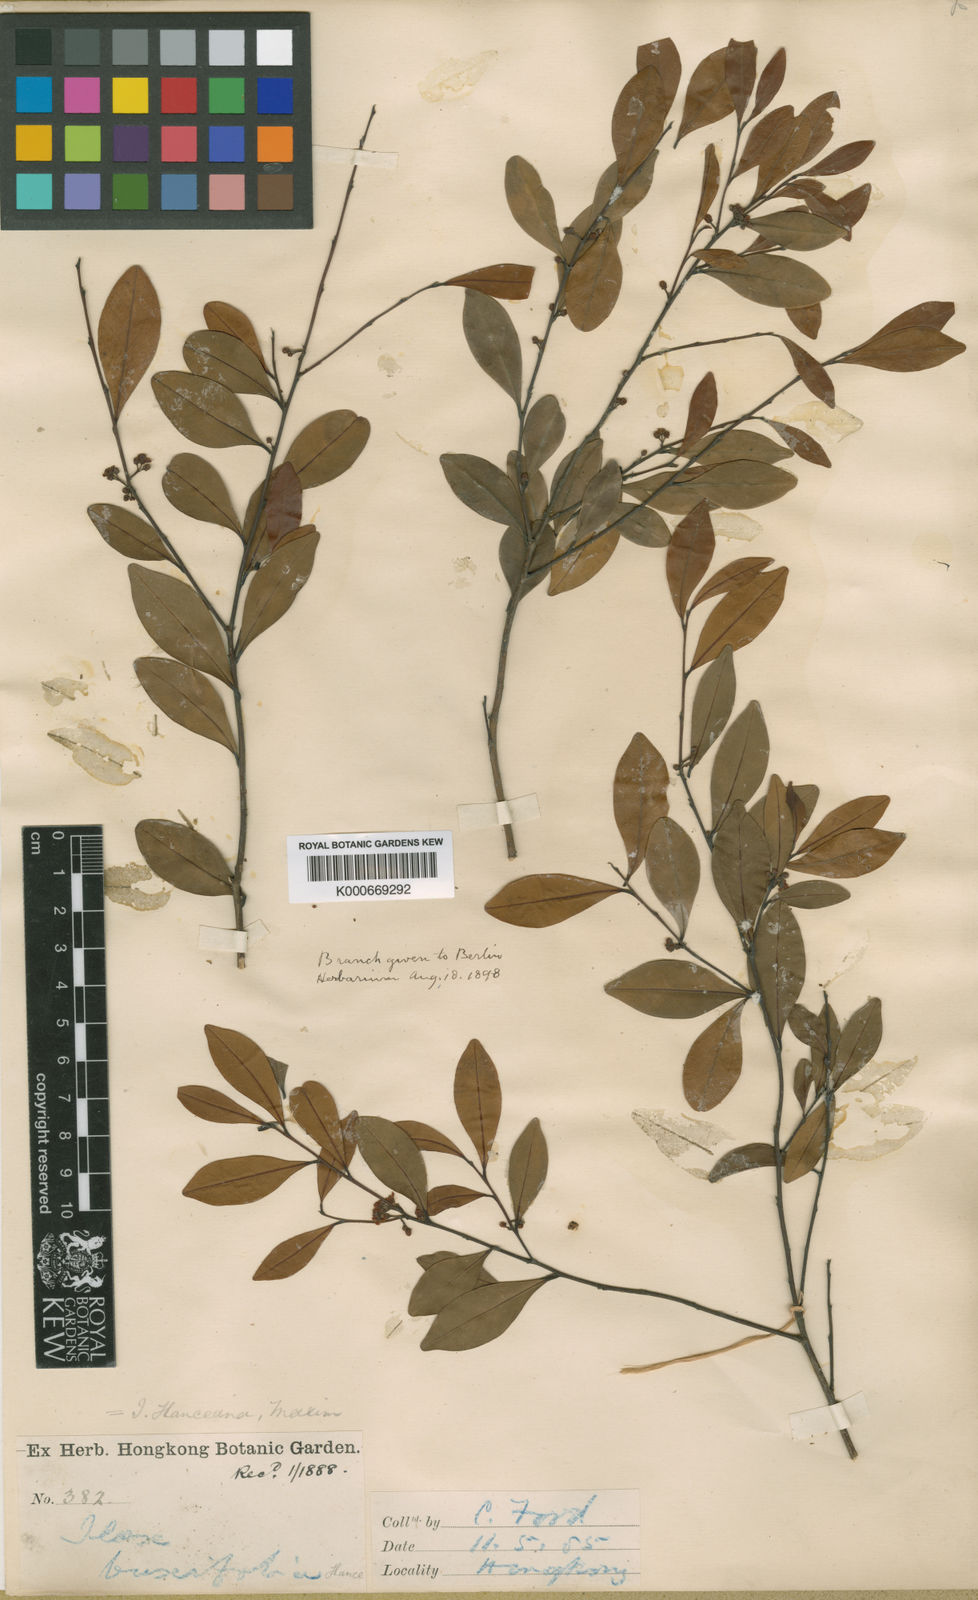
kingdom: Plantae
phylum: Tracheophyta
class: Magnoliopsida
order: Aquifoliales
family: Aquifoliaceae
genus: Ilex
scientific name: Ilex hanceana
